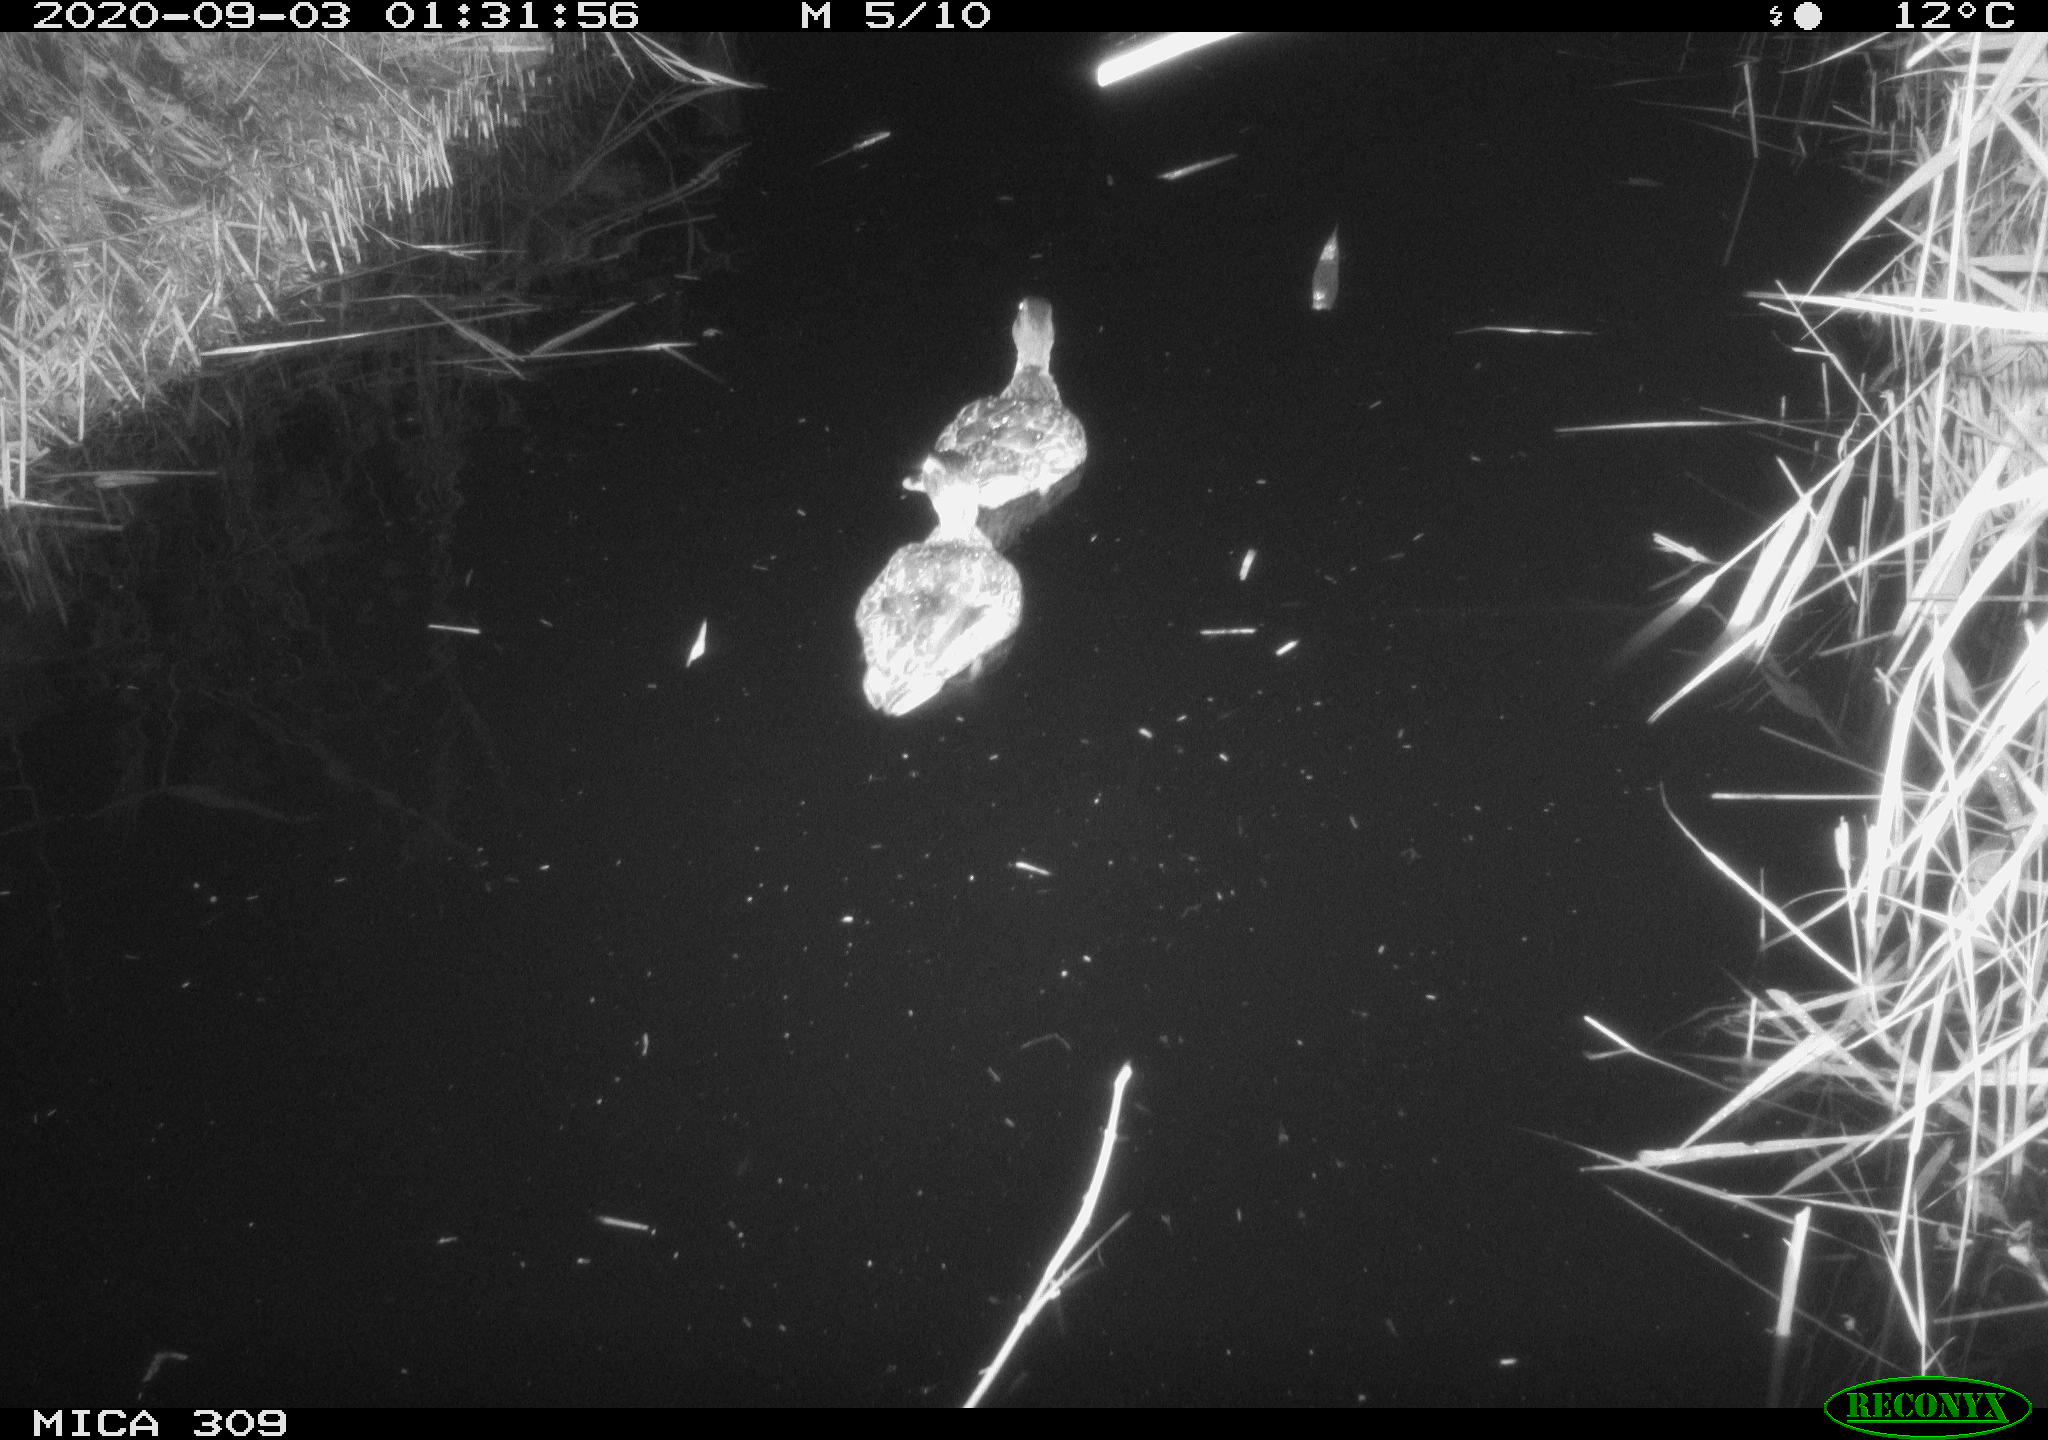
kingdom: Animalia
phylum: Chordata
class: Aves
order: Anseriformes
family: Anatidae
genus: Anas
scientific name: Anas platyrhynchos
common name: Mallard
